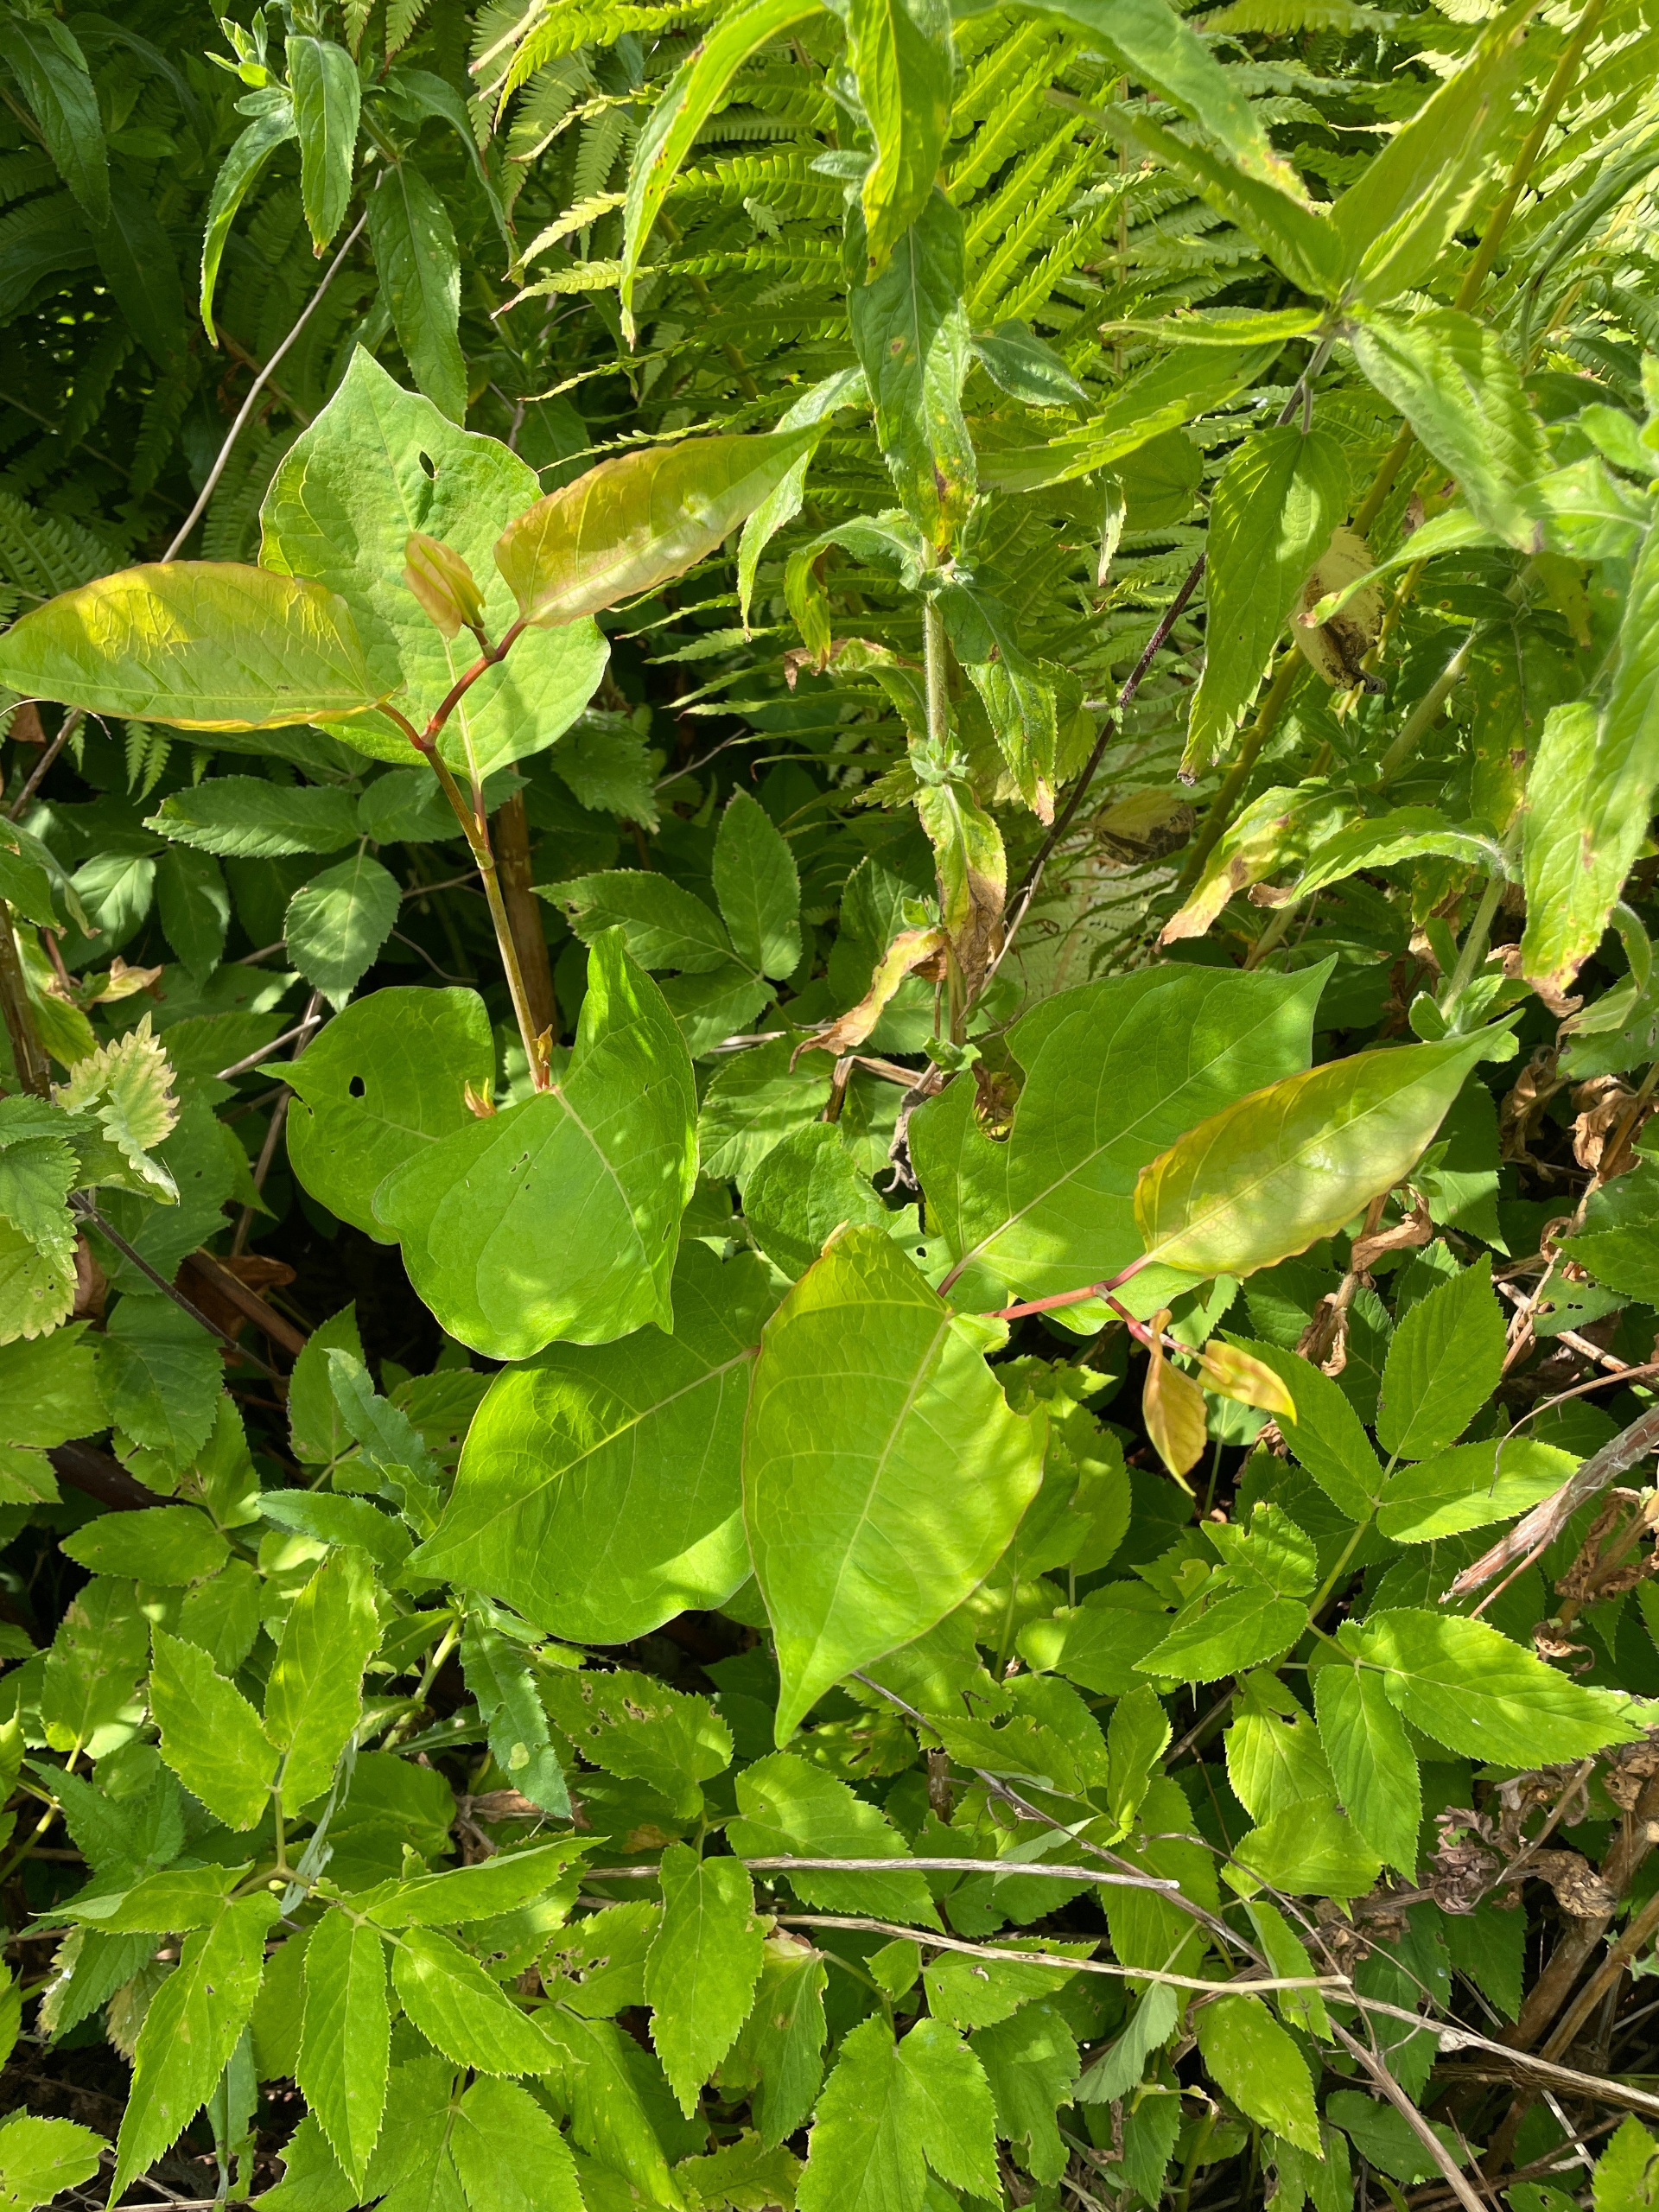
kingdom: Plantae
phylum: Tracheophyta
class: Magnoliopsida
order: Caryophyllales
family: Polygonaceae
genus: Reynoutria
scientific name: Reynoutria japonica
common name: Japan-pileurt
